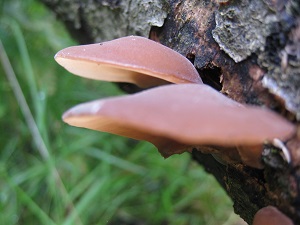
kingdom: Fungi
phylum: Basidiomycota
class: Agaricomycetes
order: Auriculariales
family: Auriculariaceae
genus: Auricularia
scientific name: Auricularia auricula-judae
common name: almindelig judasøre
